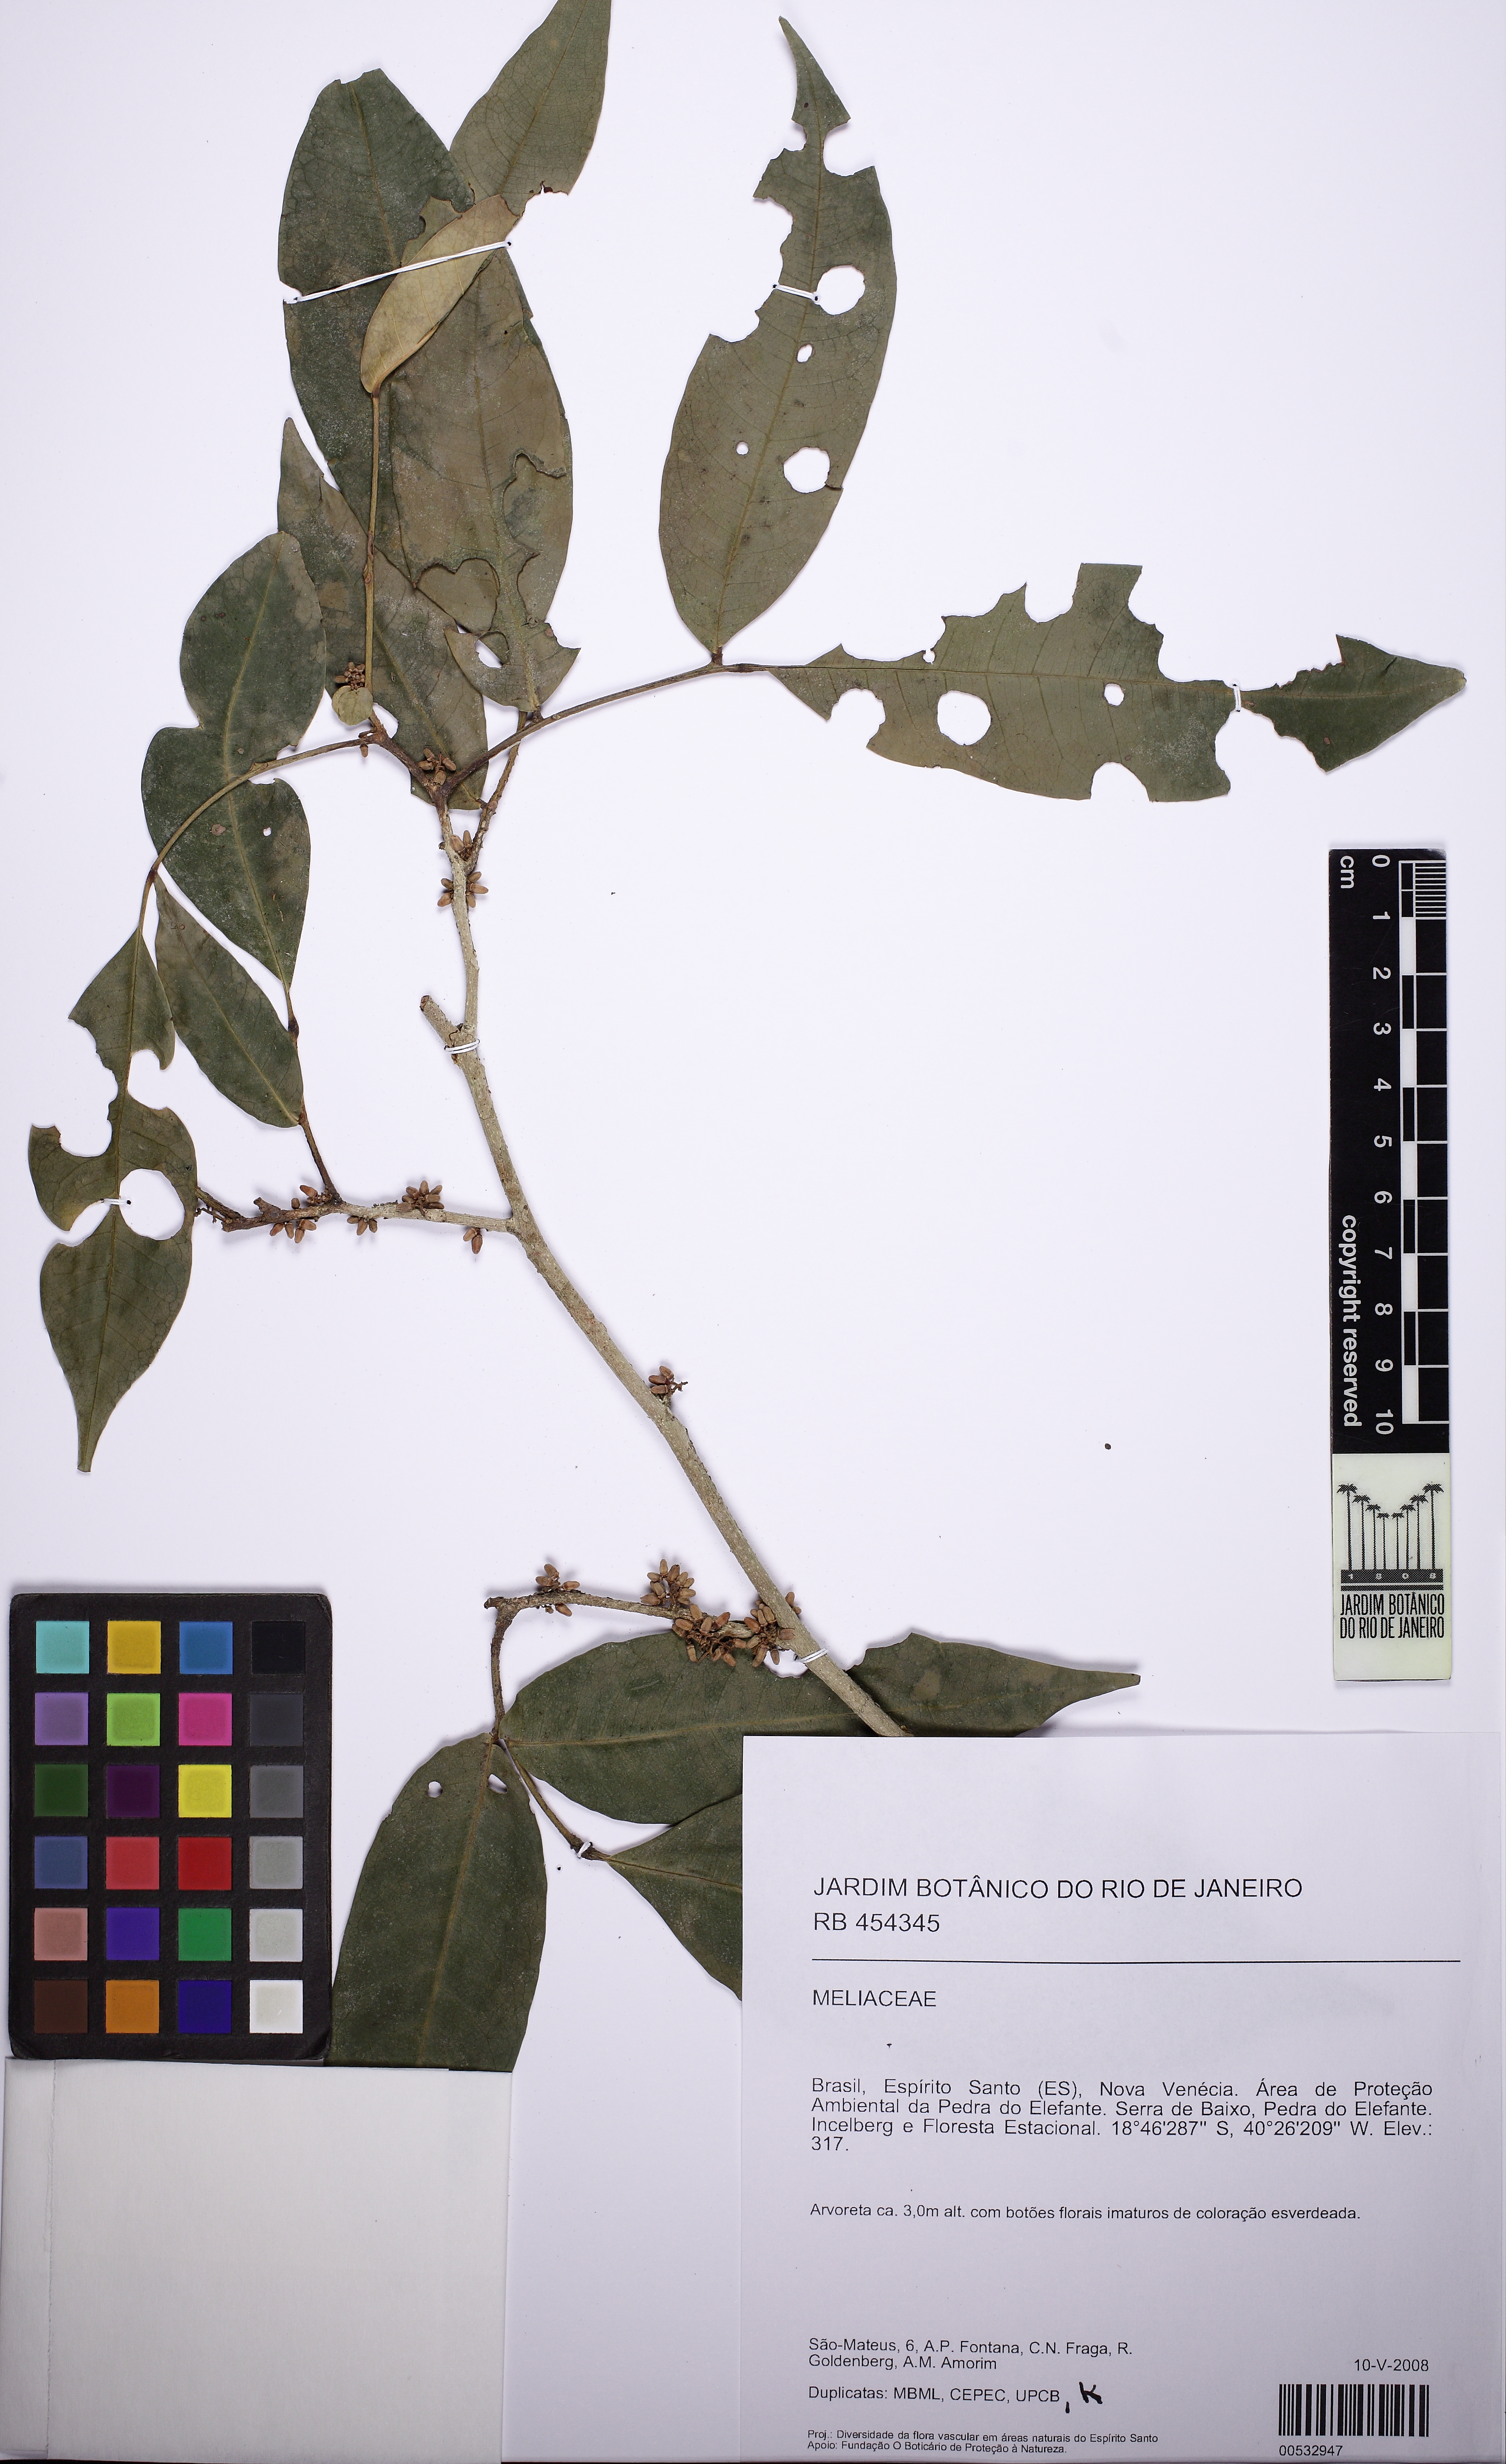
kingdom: Plantae
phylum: Tracheophyta
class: Magnoliopsida
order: Sapindales
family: Meliaceae
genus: Trichilia
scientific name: Trichilia pseudostipularis
